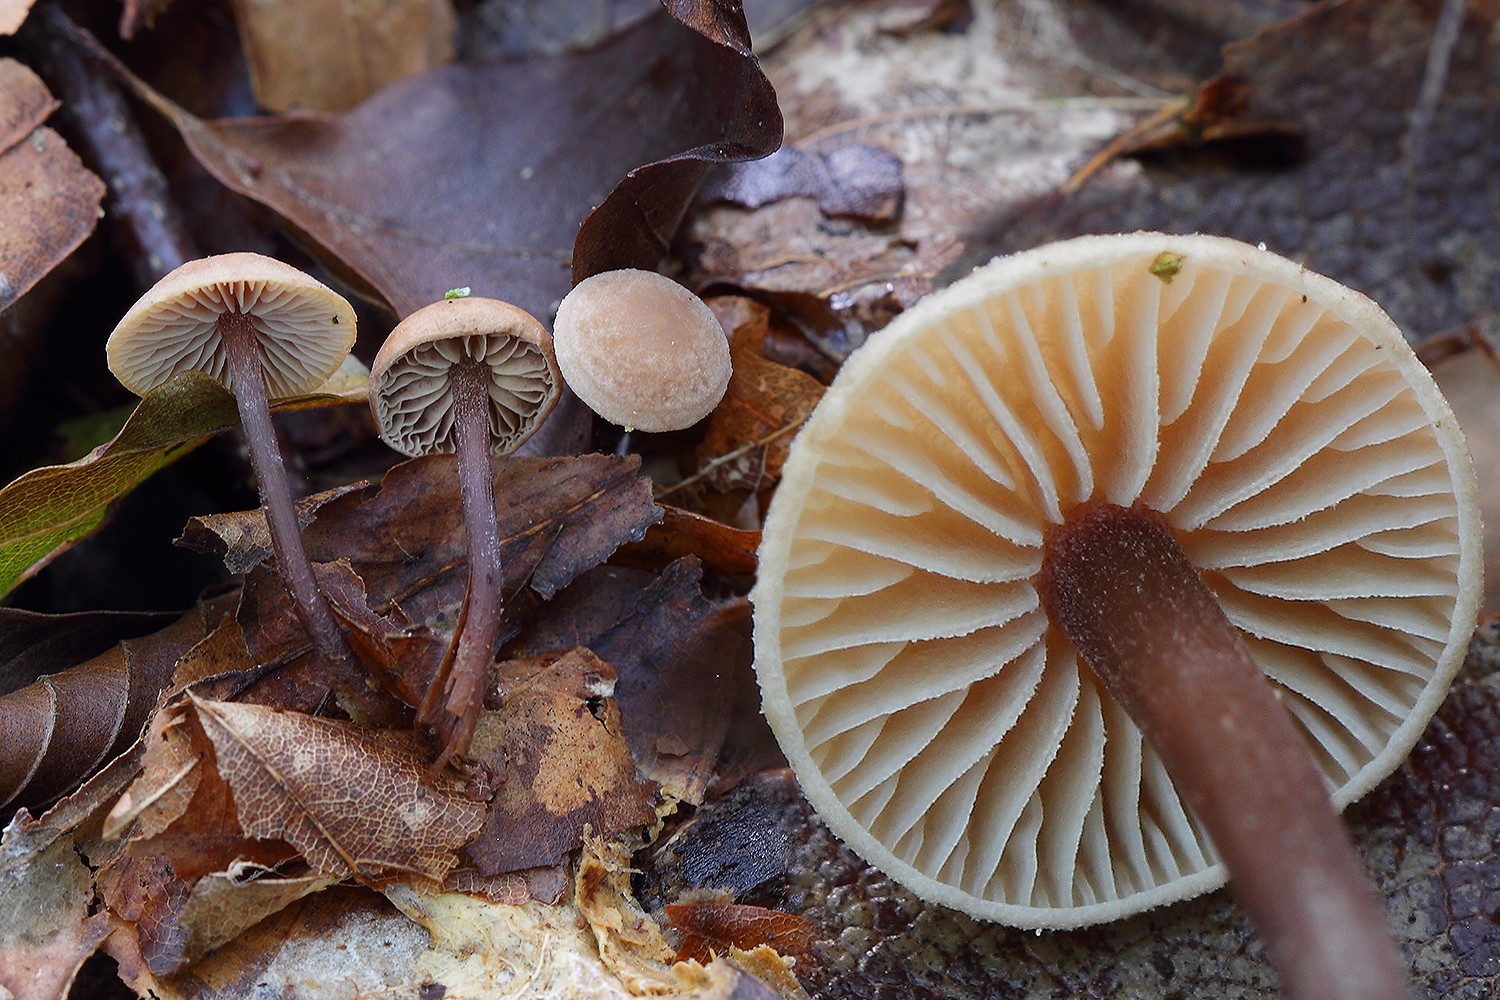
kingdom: Fungi
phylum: Basidiomycota
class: Agaricomycetes
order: Agaricales
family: Omphalotaceae
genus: Gymnopus
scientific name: Gymnopus fagiphilus
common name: bøgeløv-fladhat
